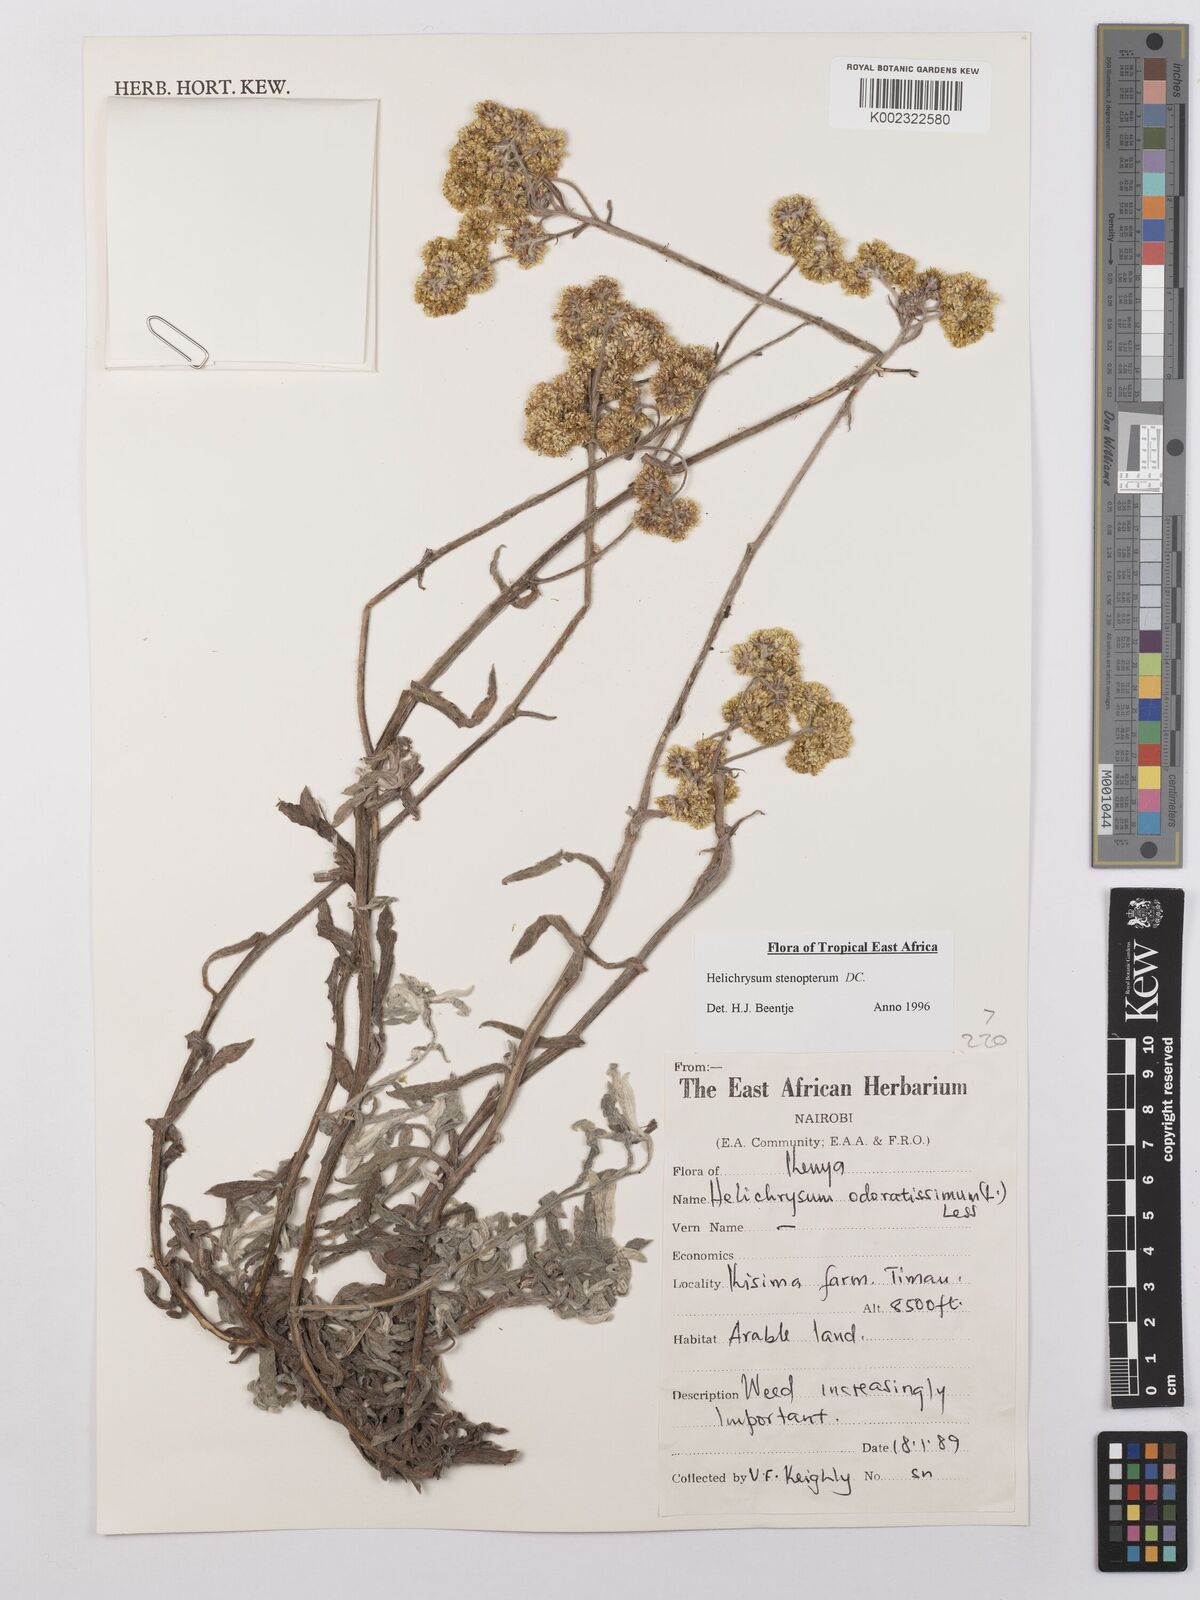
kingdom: Plantae
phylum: Tracheophyta
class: Magnoliopsida
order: Asterales
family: Asteraceae
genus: Helichrysum
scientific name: Helichrysum stenopterum
